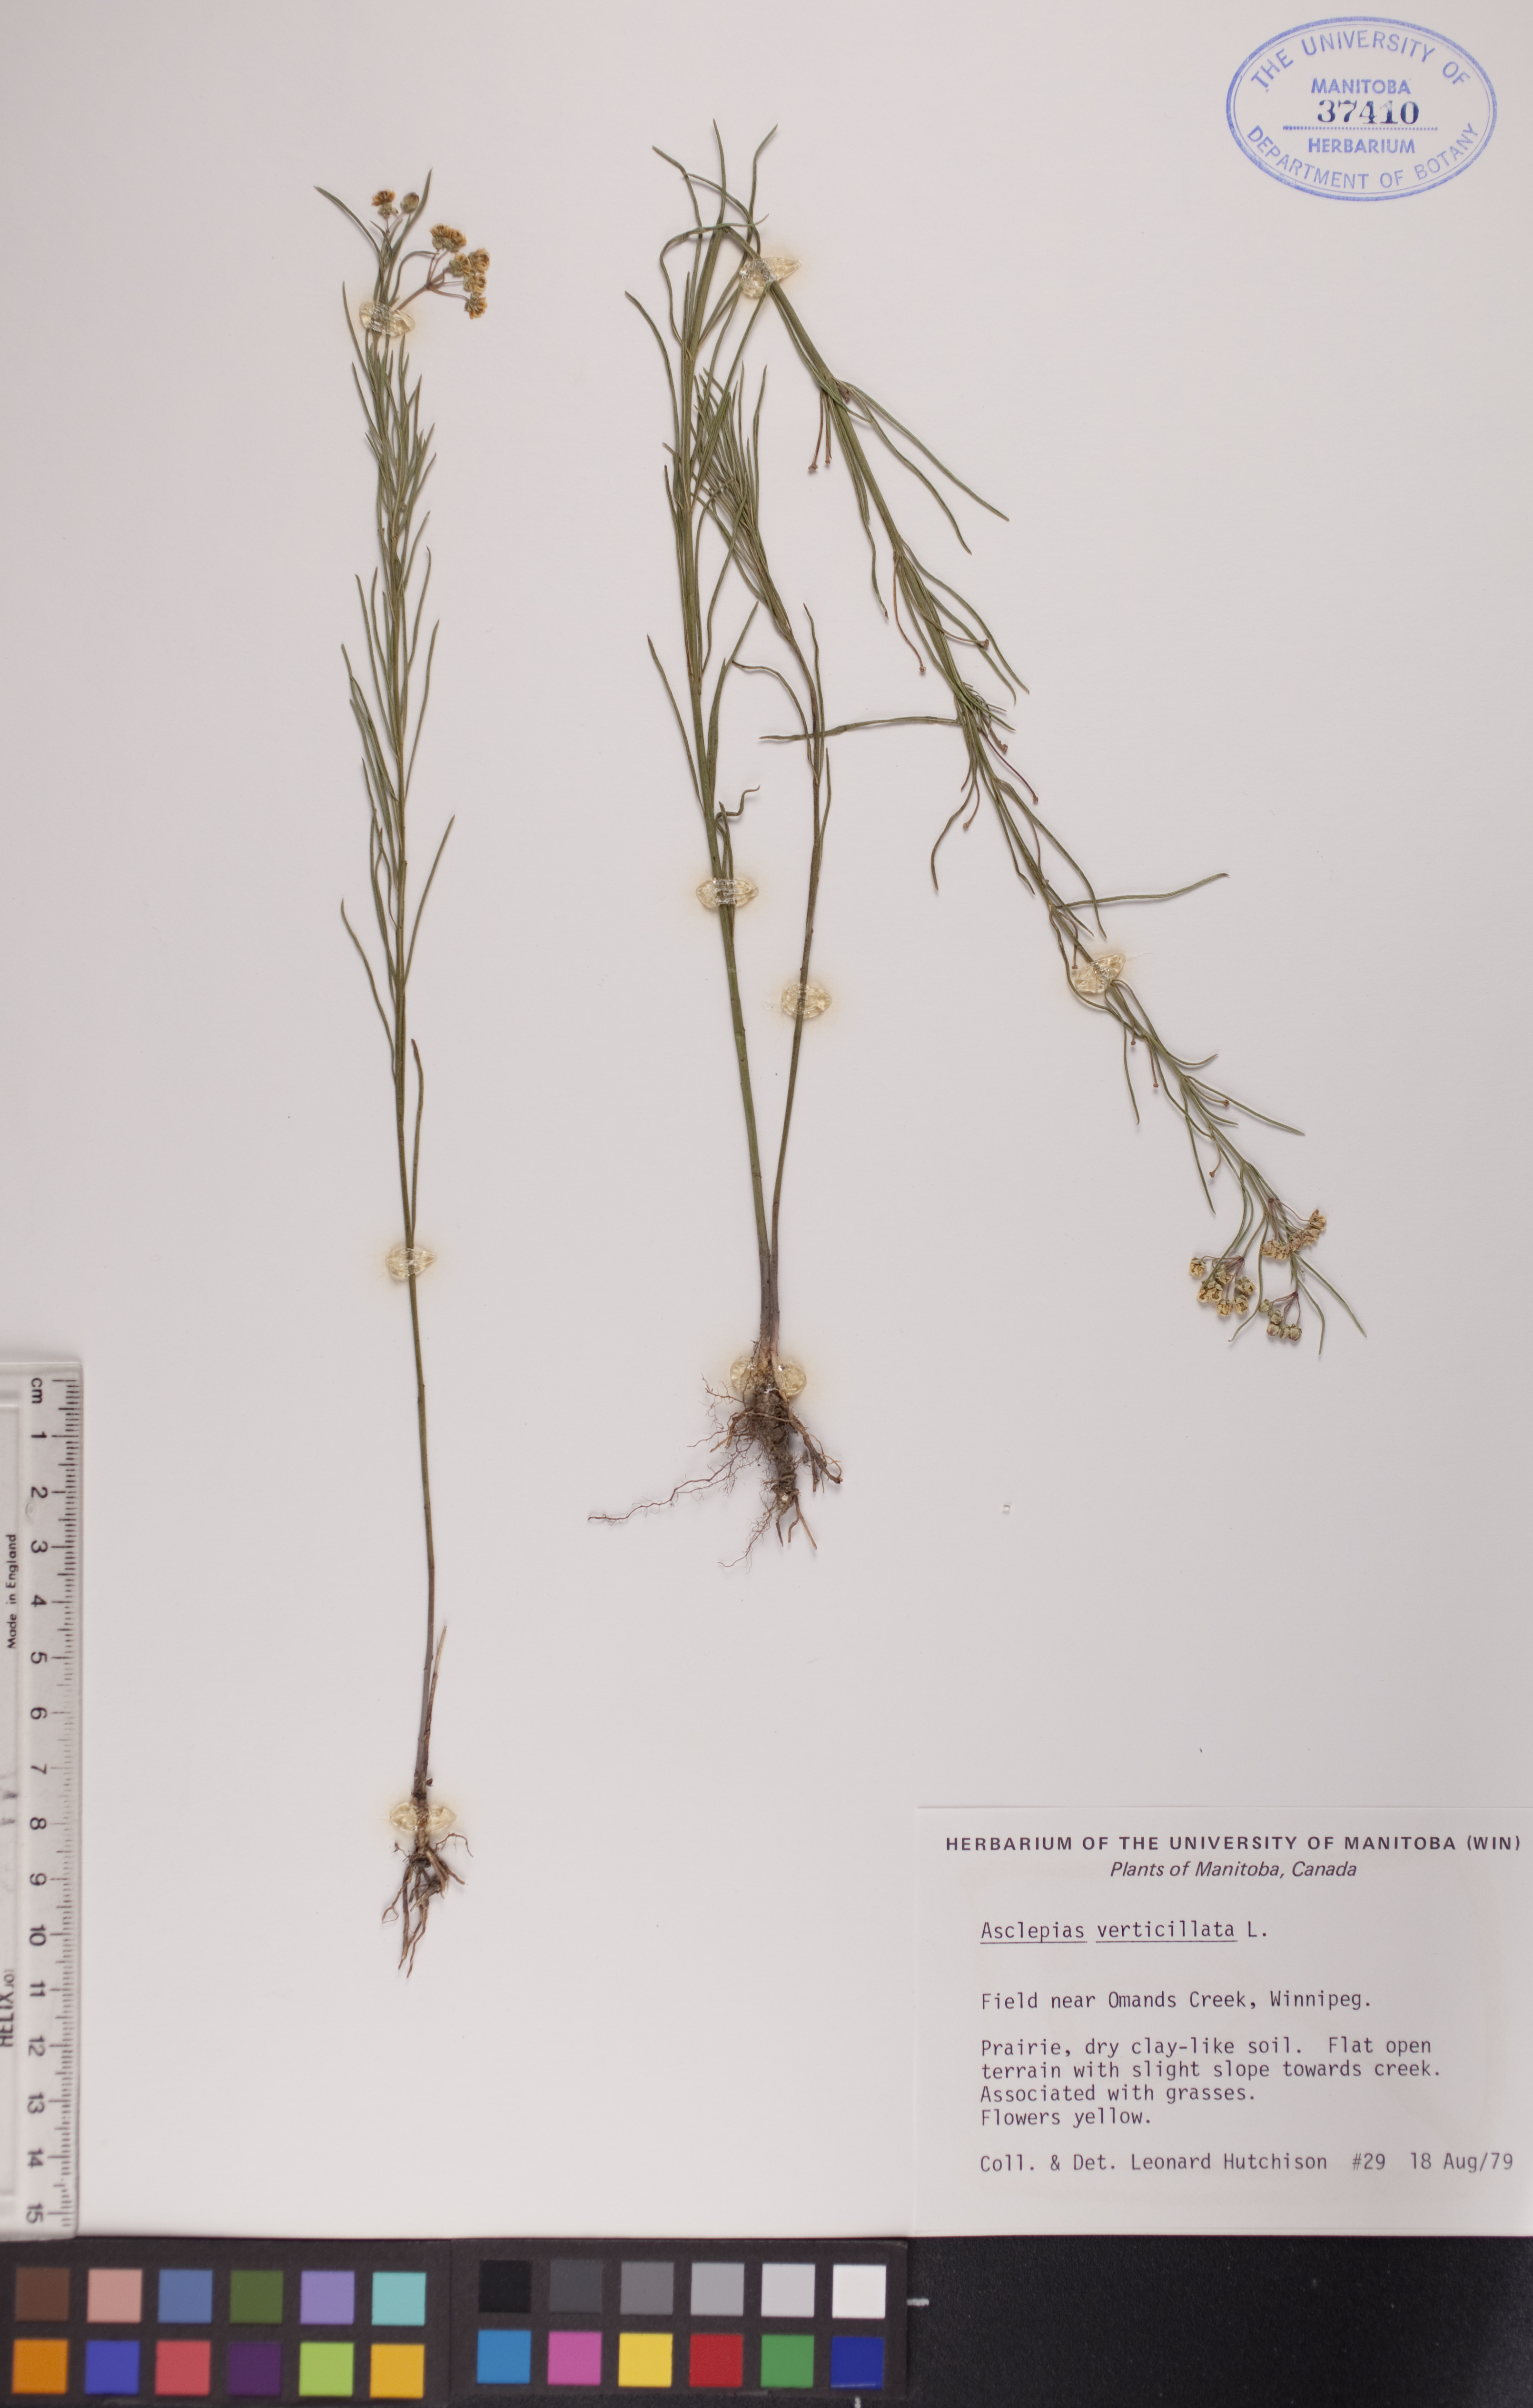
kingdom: Plantae
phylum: Tracheophyta
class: Magnoliopsida
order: Gentianales
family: Apocynaceae
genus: Asclepias
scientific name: Asclepias verticillata
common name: Eastern whorled milkweed
